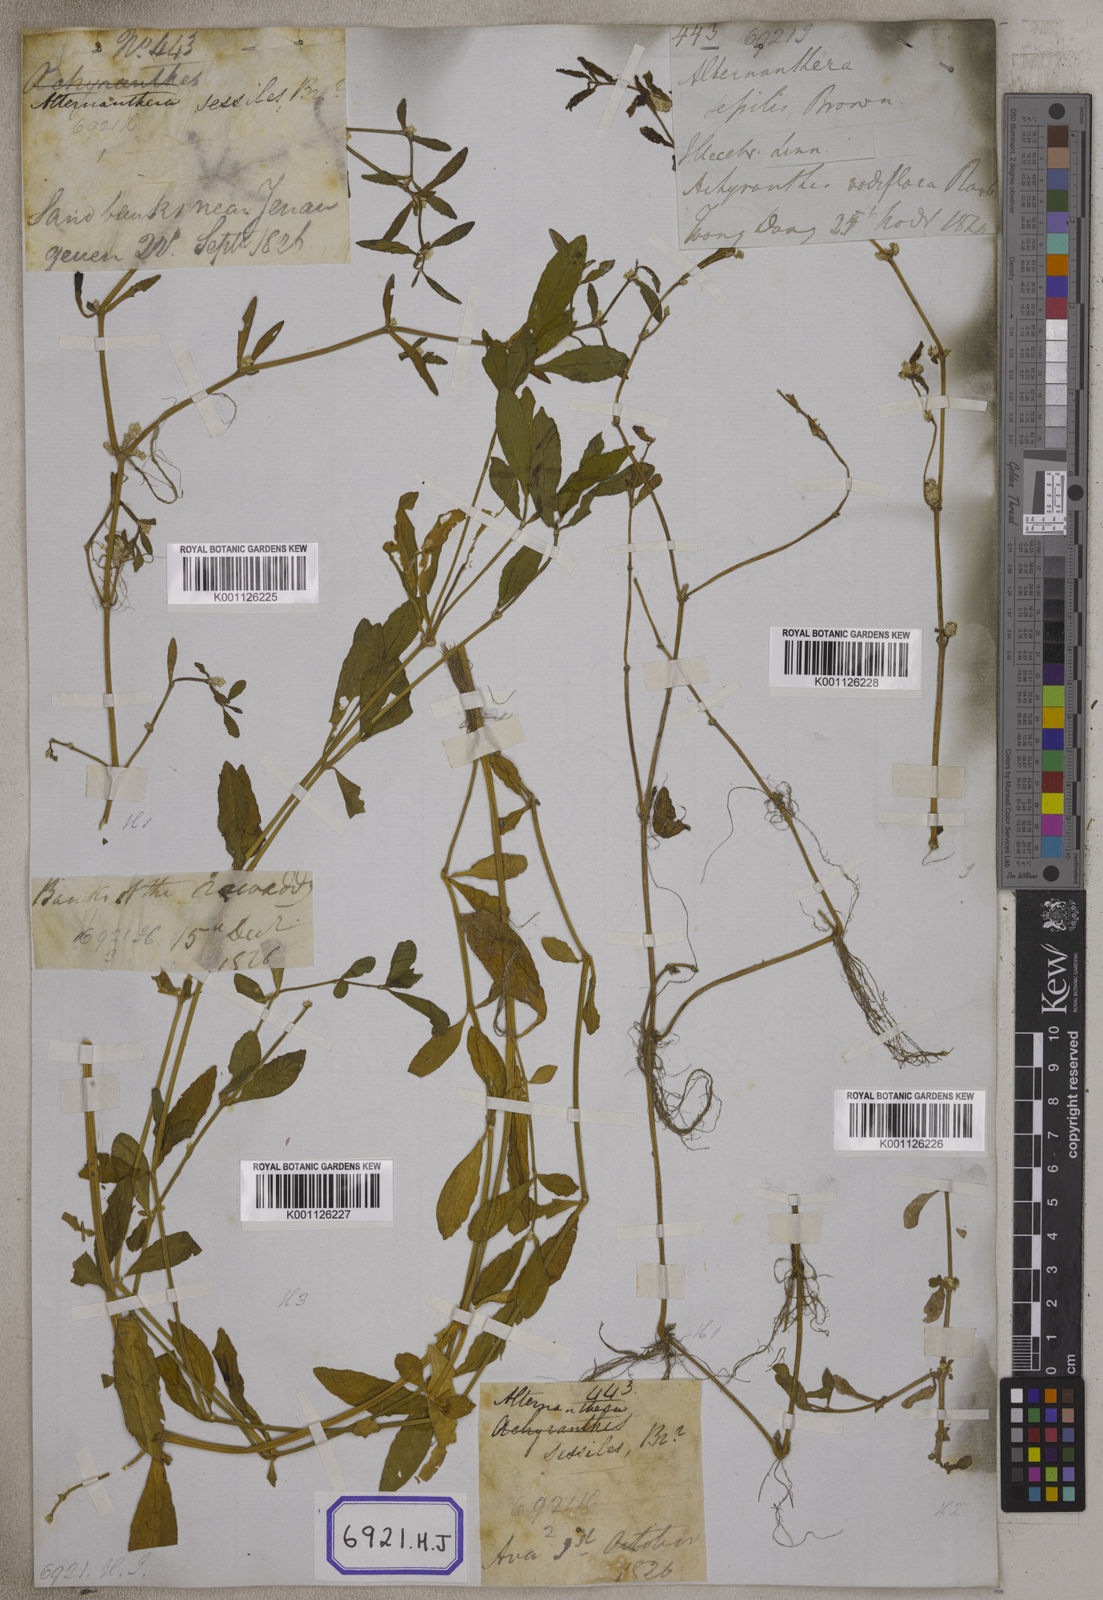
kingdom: Plantae
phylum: Tracheophyta
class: Magnoliopsida
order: Caryophyllales
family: Amaranthaceae
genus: Alternanthera
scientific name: Alternanthera
